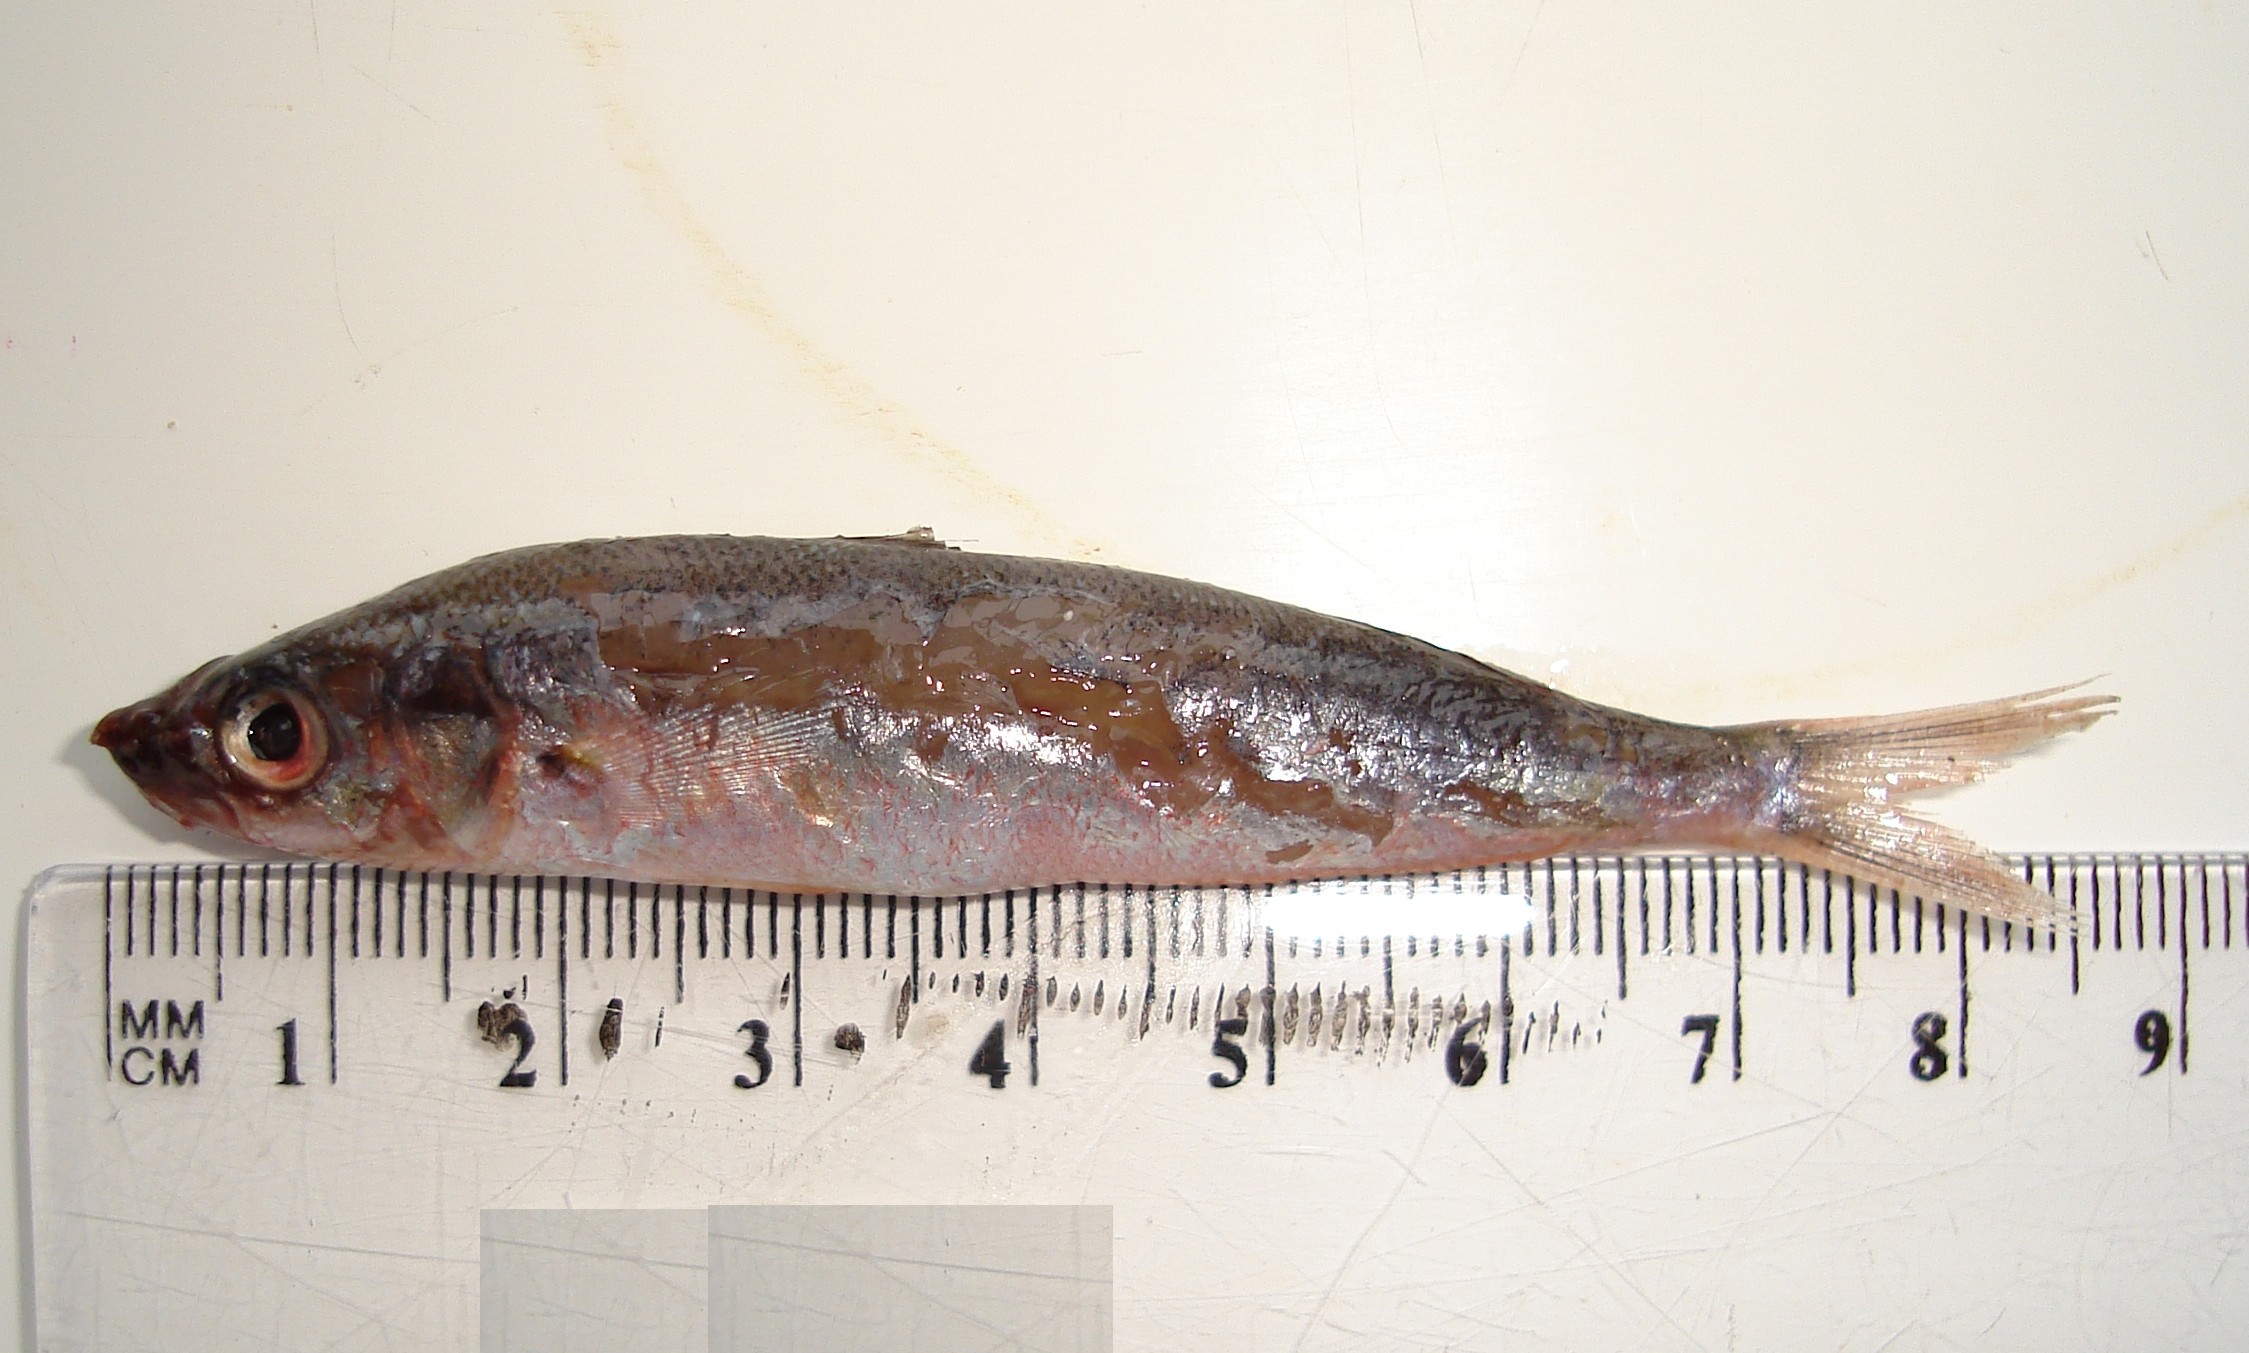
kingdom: Animalia
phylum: Chordata
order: Perciformes
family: Caesionidae
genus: Pterocaesio
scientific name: Pterocaesio tile
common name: Dark-banded fusilier
